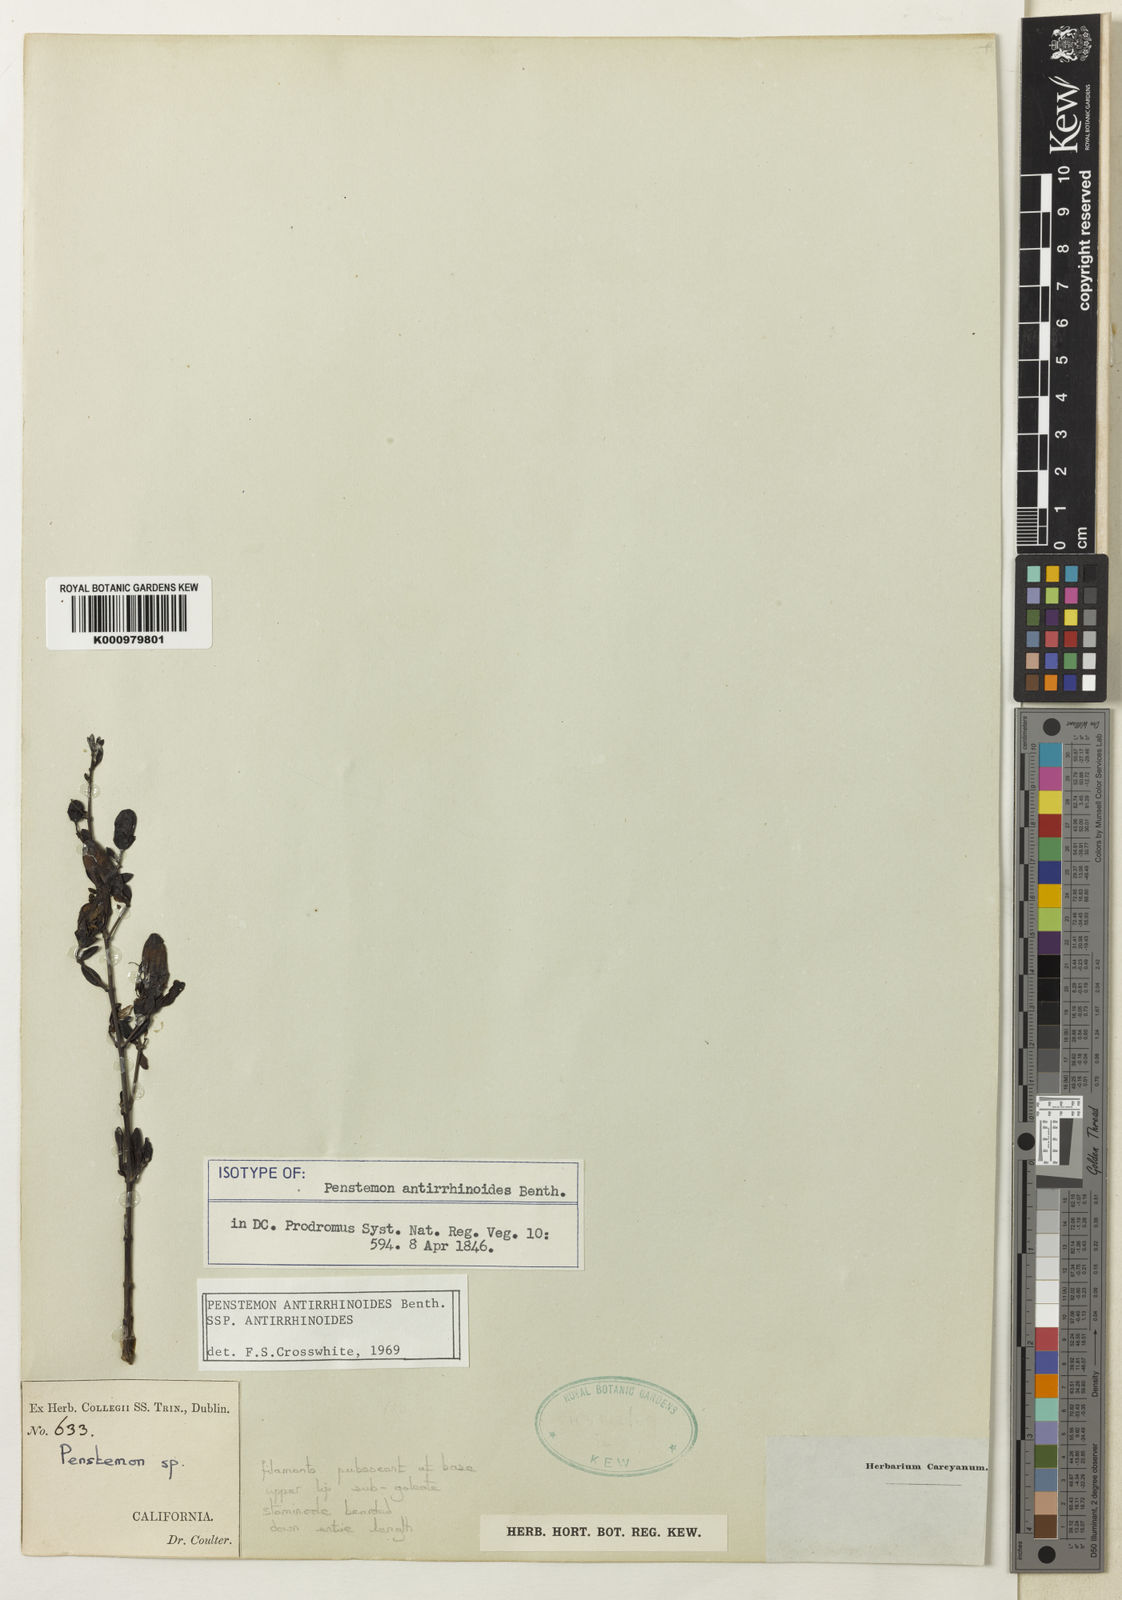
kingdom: Plantae
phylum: Tracheophyta
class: Magnoliopsida
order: Lamiales
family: Plantaginaceae
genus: Keckiella
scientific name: Keckiella antirrhinoides
